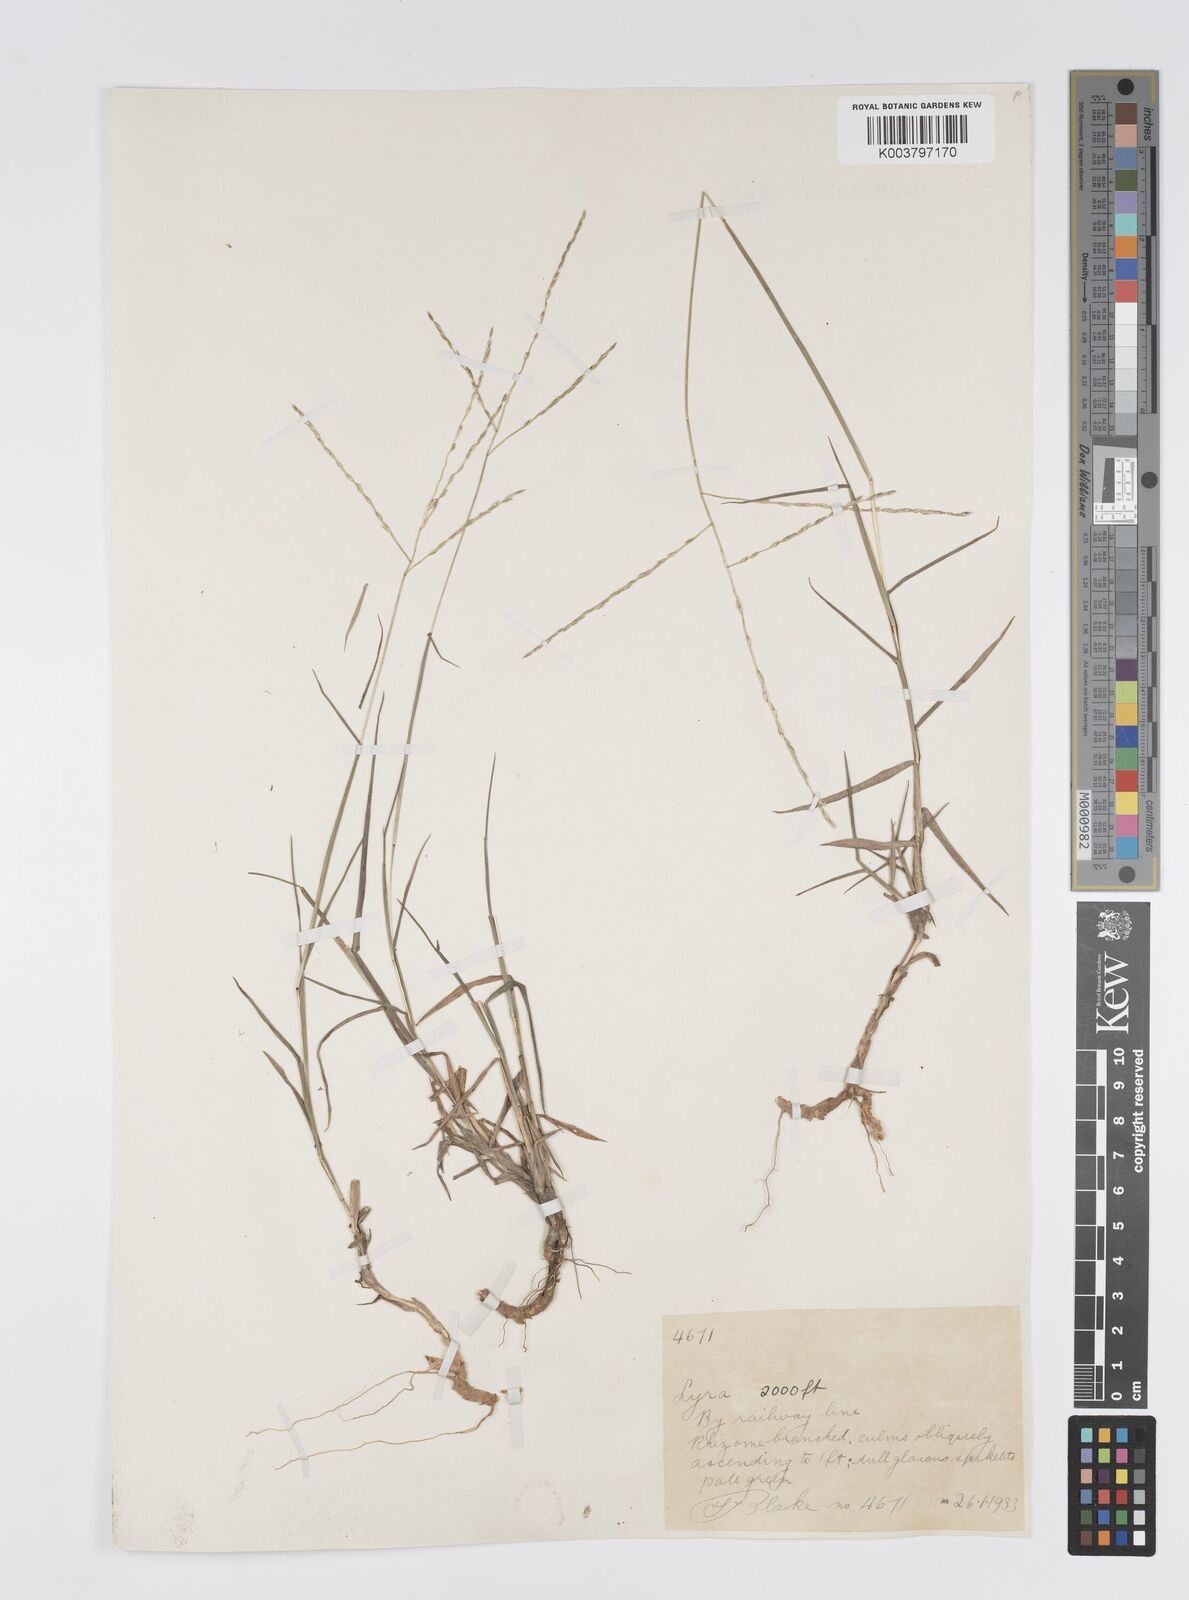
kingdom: Plantae
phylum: Tracheophyta
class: Liliopsida
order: Poales
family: Poaceae
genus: Digitaria
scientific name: Digitaria spec
